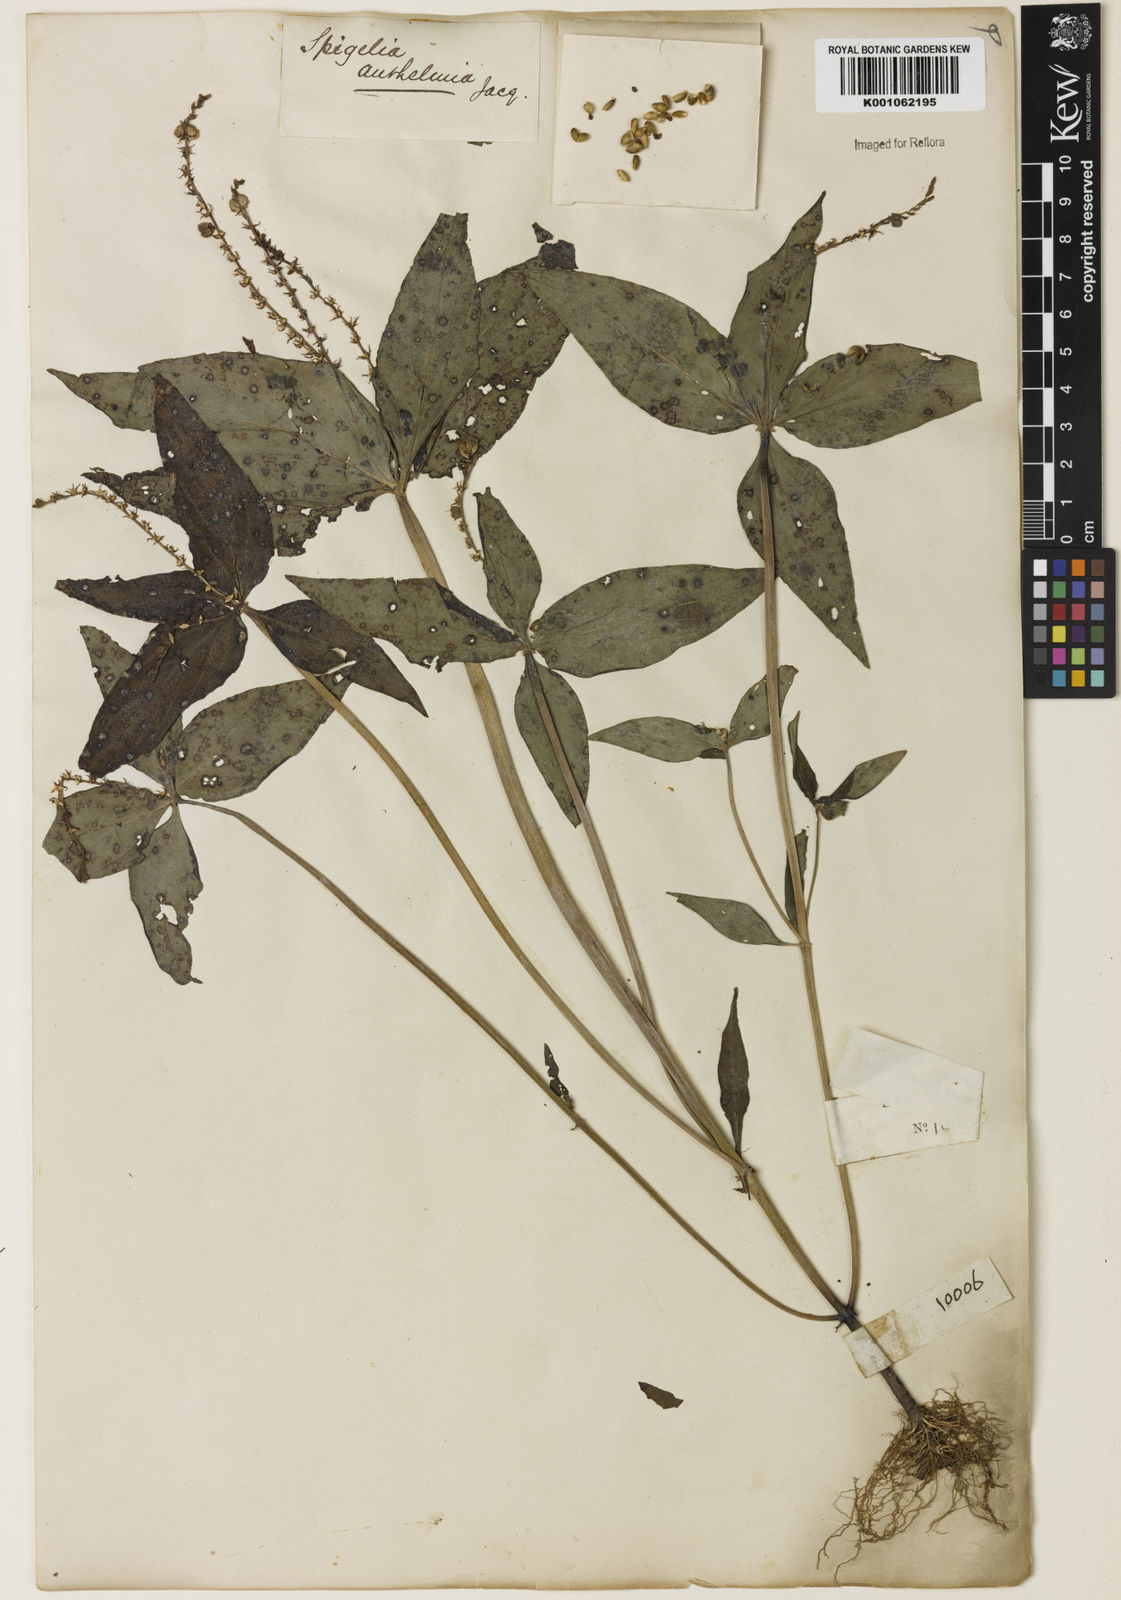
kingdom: Plantae
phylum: Tracheophyta
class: Magnoliopsida
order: Gentianales
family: Loganiaceae
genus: Spigelia
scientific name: Spigelia anthelmia
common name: West indian-pink
